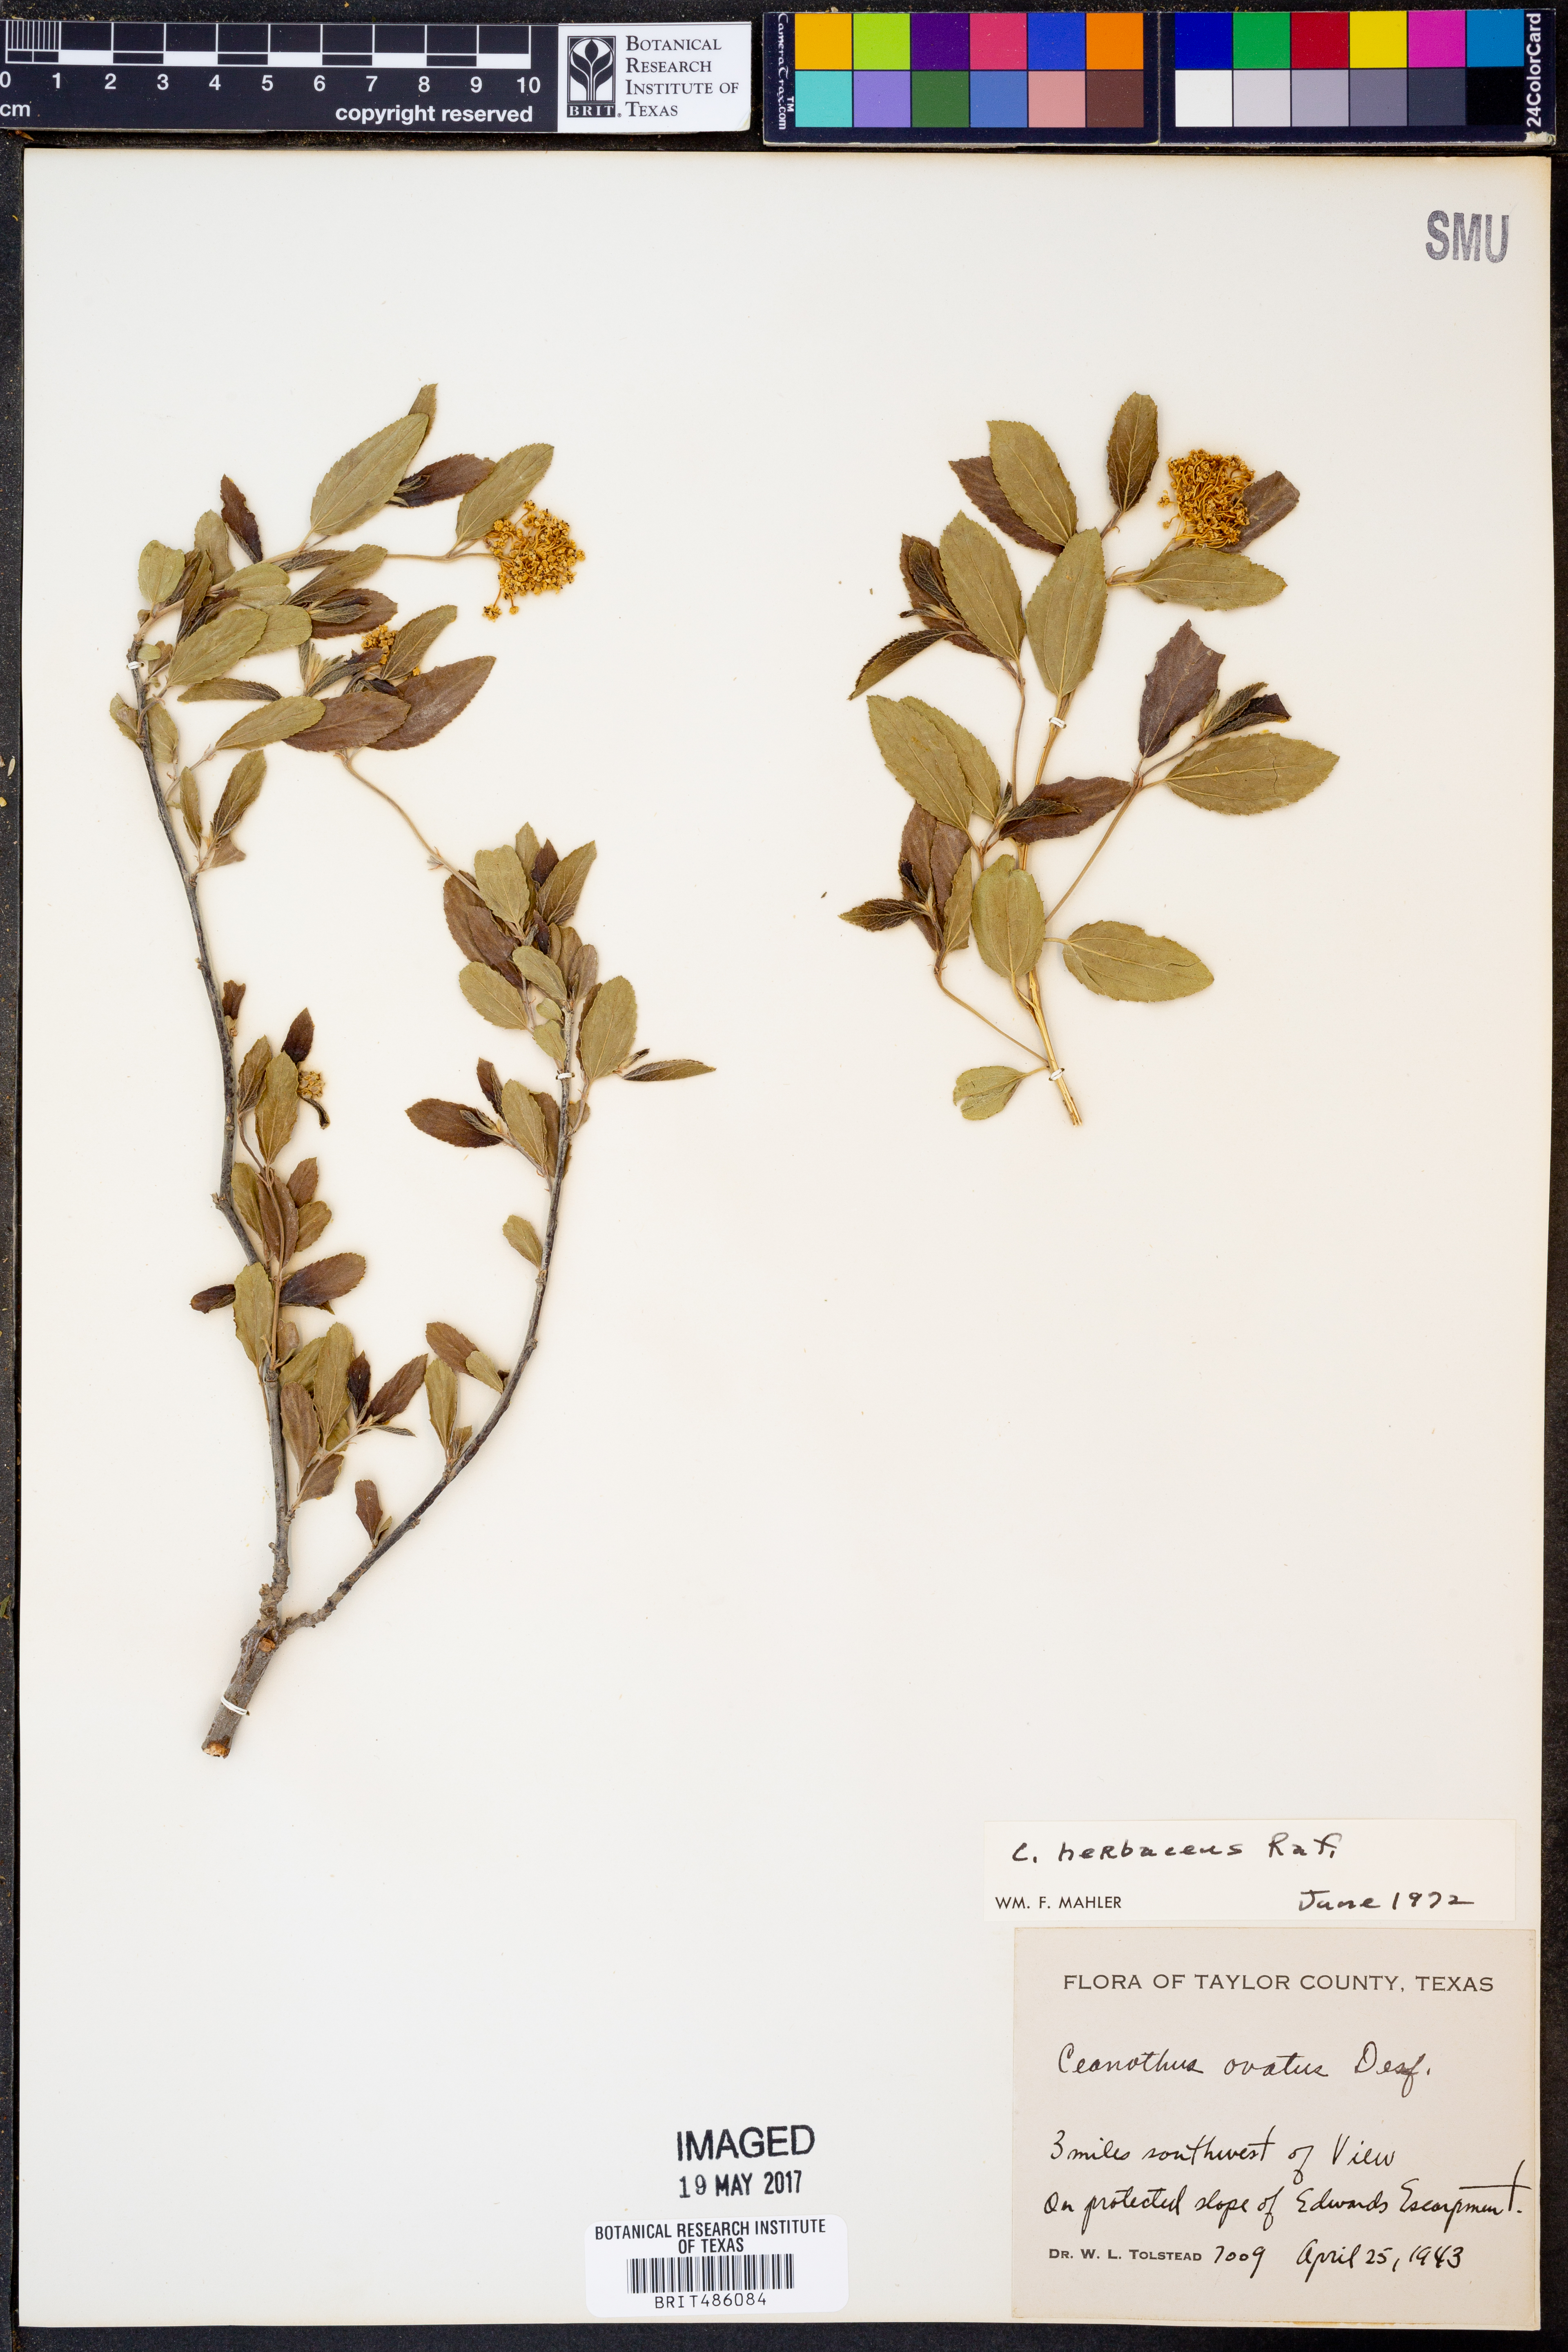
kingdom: Plantae
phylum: Tracheophyta
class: Magnoliopsida
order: Rosales
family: Rhamnaceae
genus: Ceanothus
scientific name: Ceanothus herbaceus
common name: Inland ceanothus
